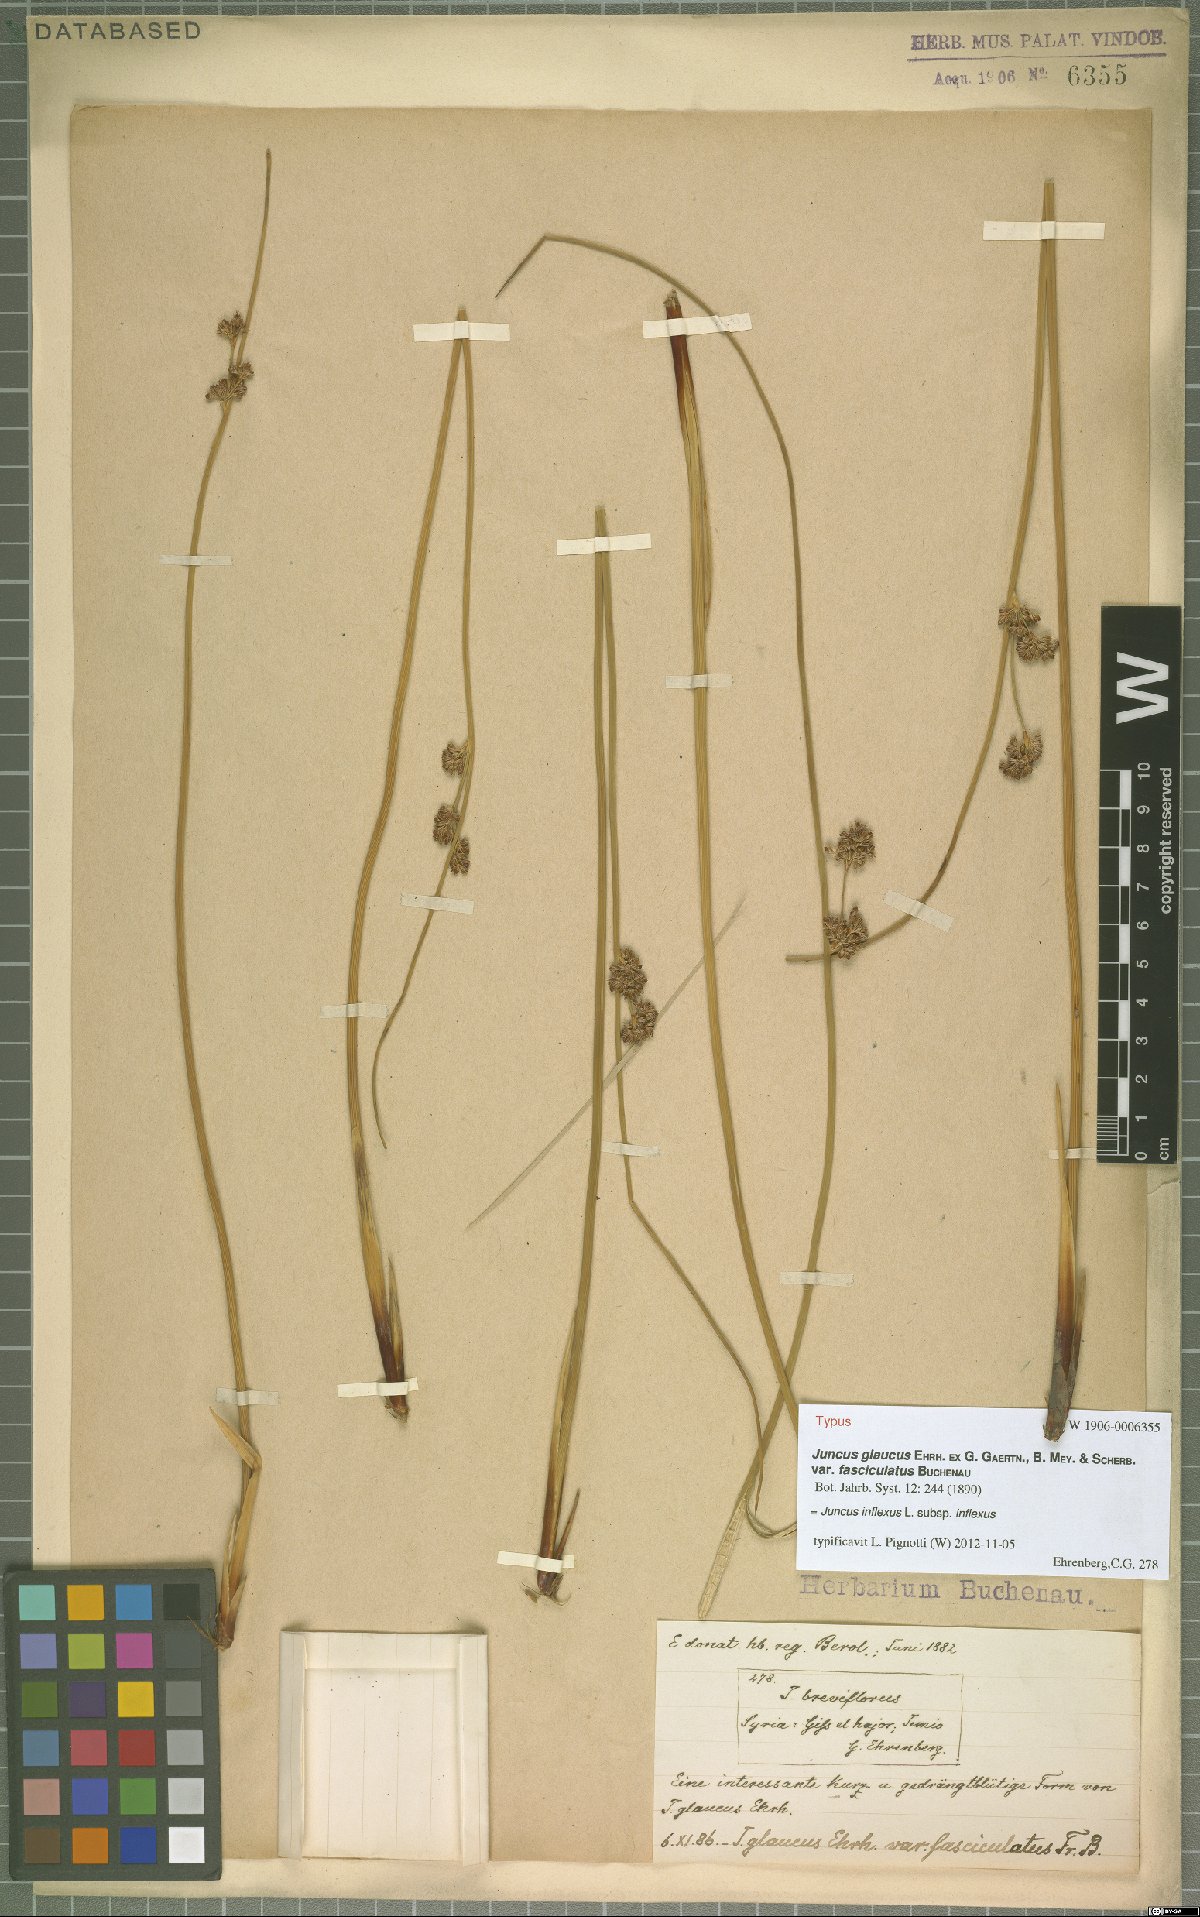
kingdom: Plantae
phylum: Tracheophyta
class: Liliopsida
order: Poales
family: Juncaceae
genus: Juncus
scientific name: Juncus inflexus
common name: Hard rush
